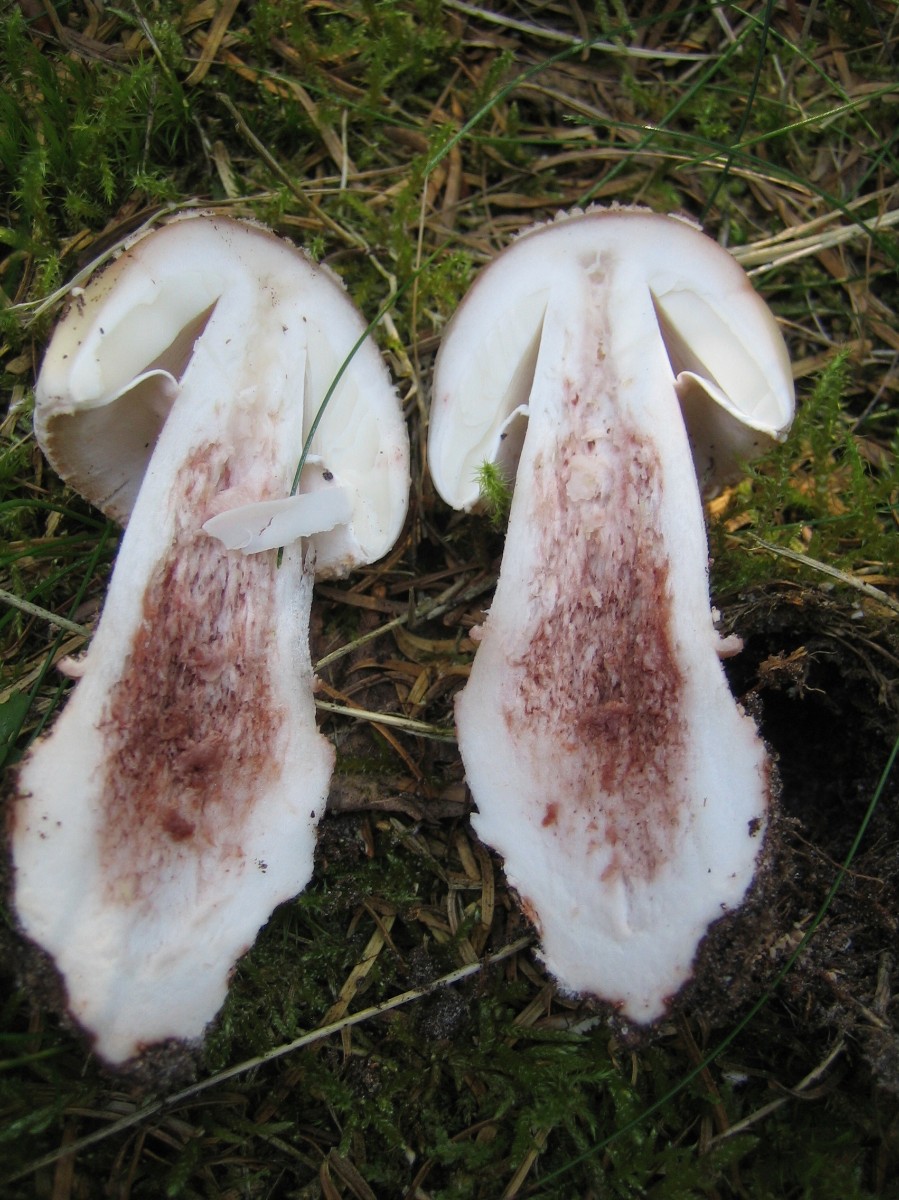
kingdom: Fungi
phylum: Basidiomycota
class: Agaricomycetes
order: Agaricales
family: Amanitaceae
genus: Amanita
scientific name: Amanita rubescens
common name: rødmende fluesvamp
